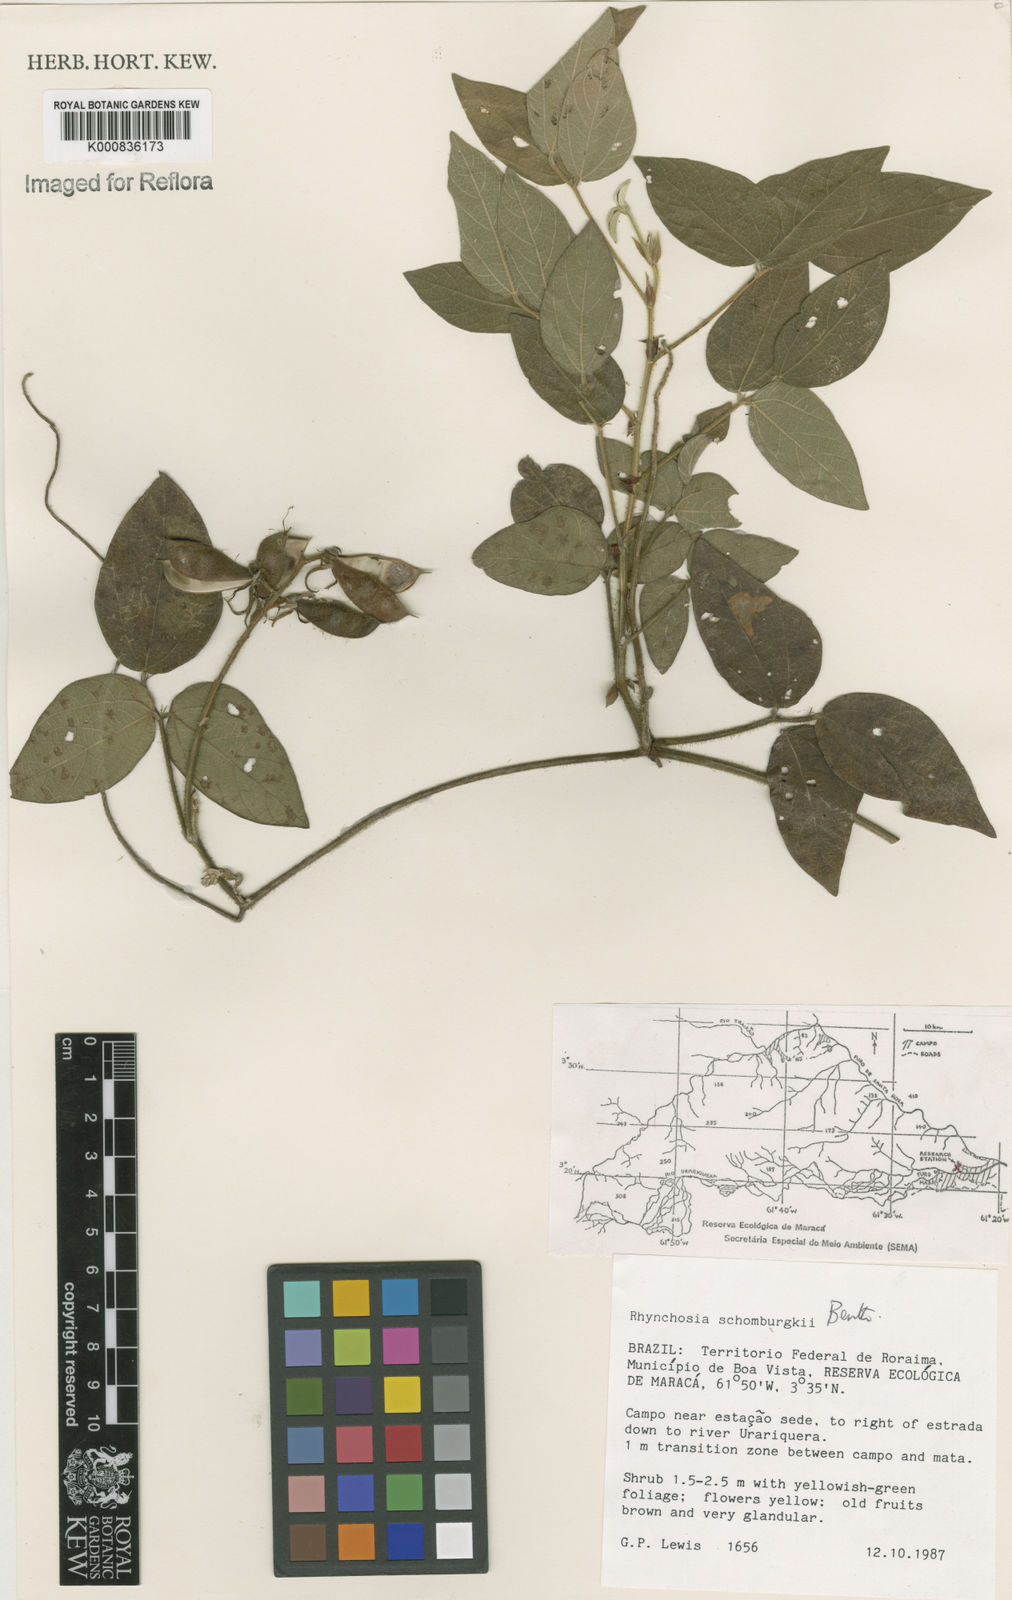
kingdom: Plantae
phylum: Tracheophyta
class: Magnoliopsida
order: Fabales
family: Fabaceae
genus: Rhynchosia
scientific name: Rhynchosia schomburgkii
